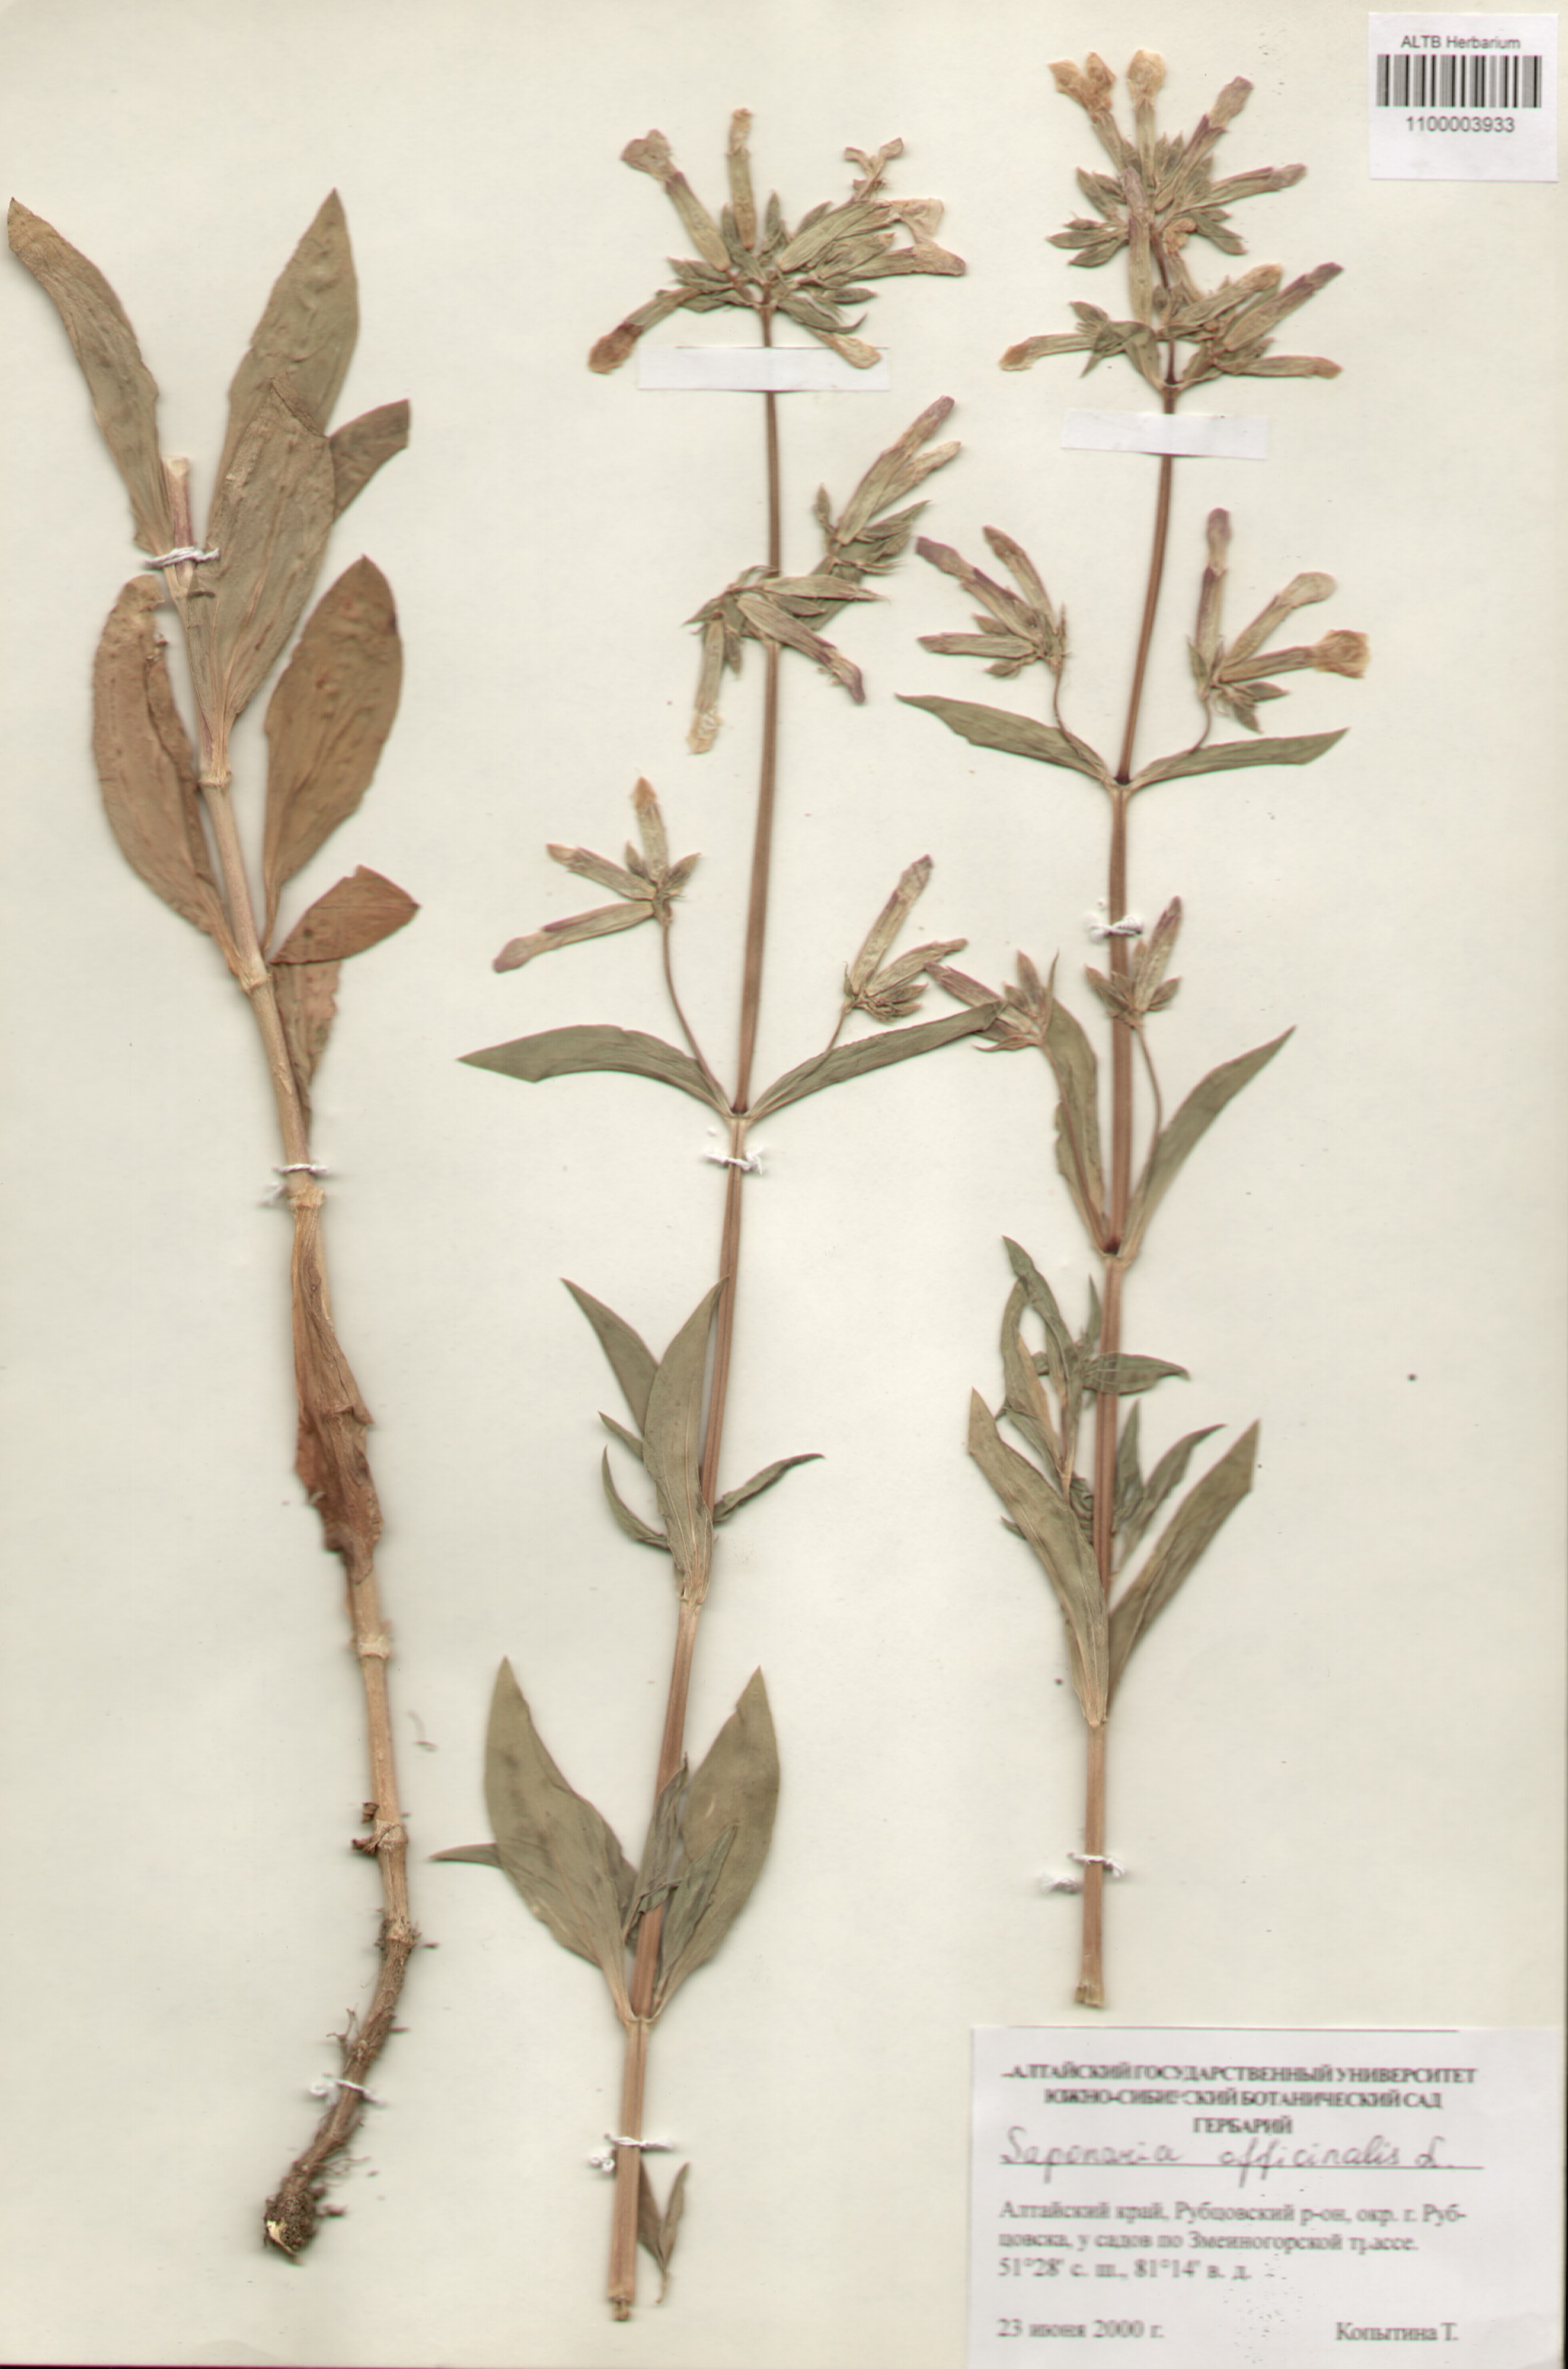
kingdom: Plantae
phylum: Tracheophyta
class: Magnoliopsida
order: Caryophyllales
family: Caryophyllaceae
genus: Saponaria
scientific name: Saponaria officinalis
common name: Soapwort
